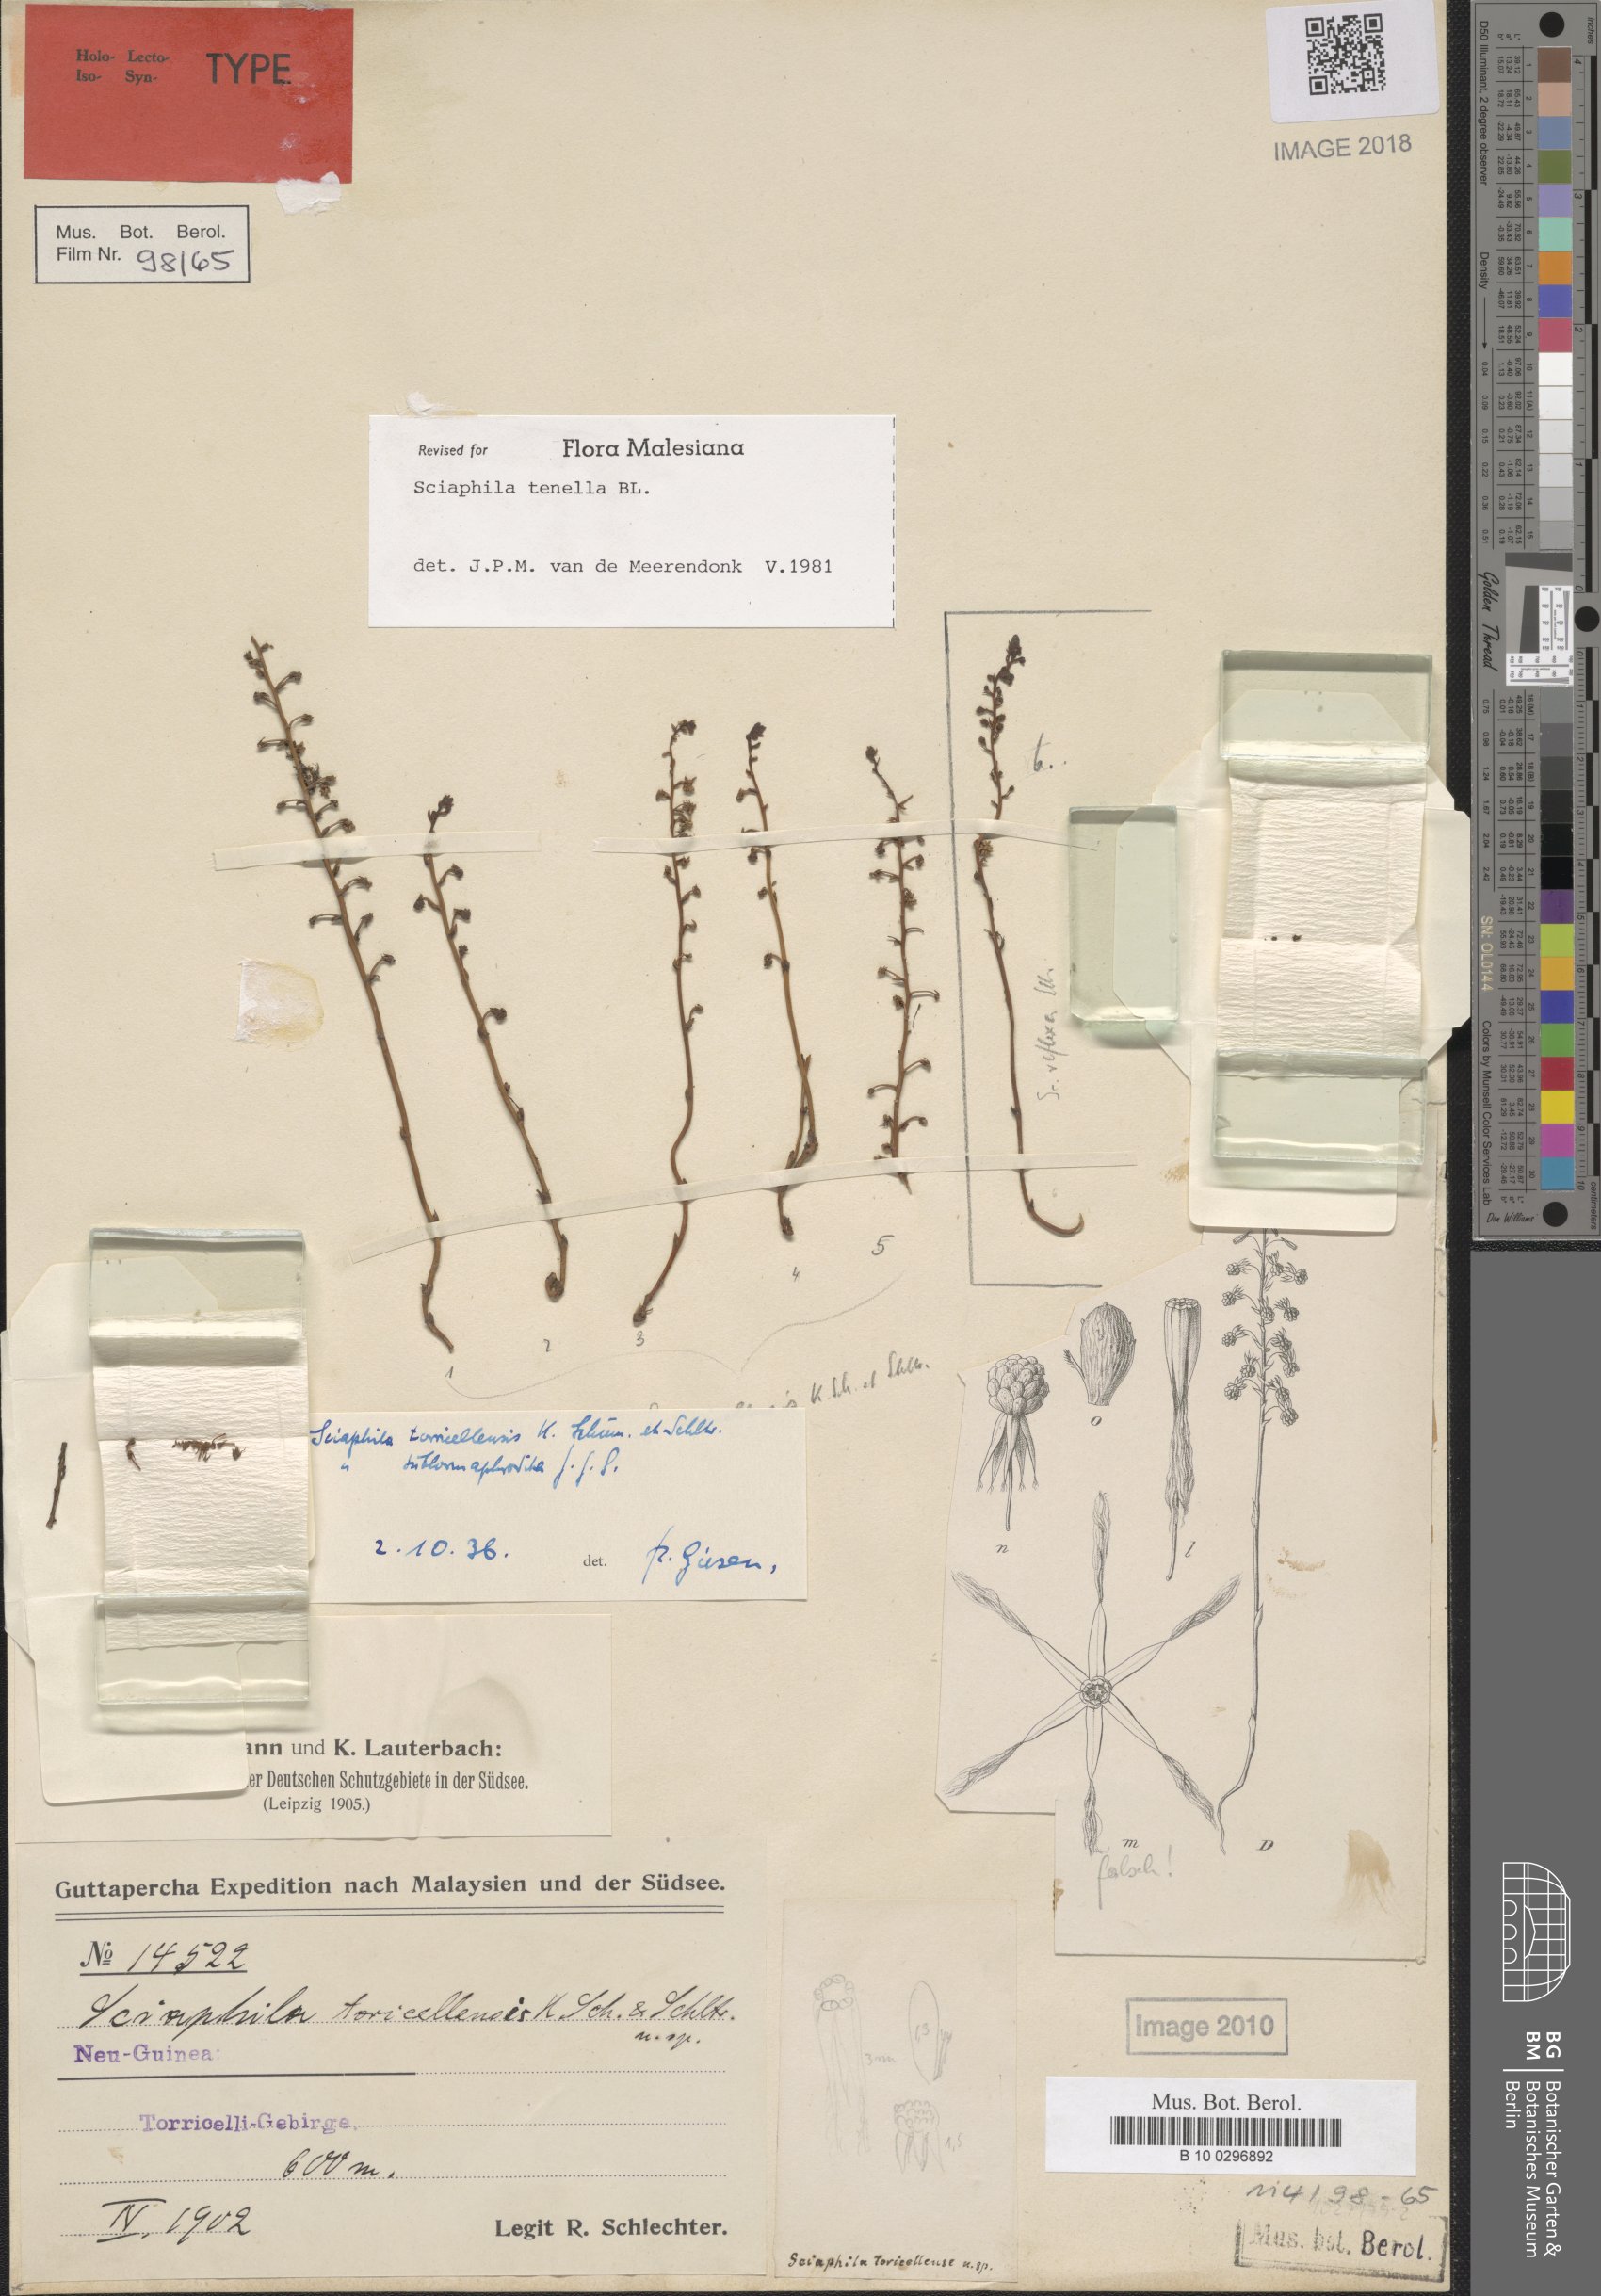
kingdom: Plantae
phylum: Tracheophyta
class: Liliopsida
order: Pandanales
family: Triuridaceae
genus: Sciaphila
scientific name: Sciaphila tenella
